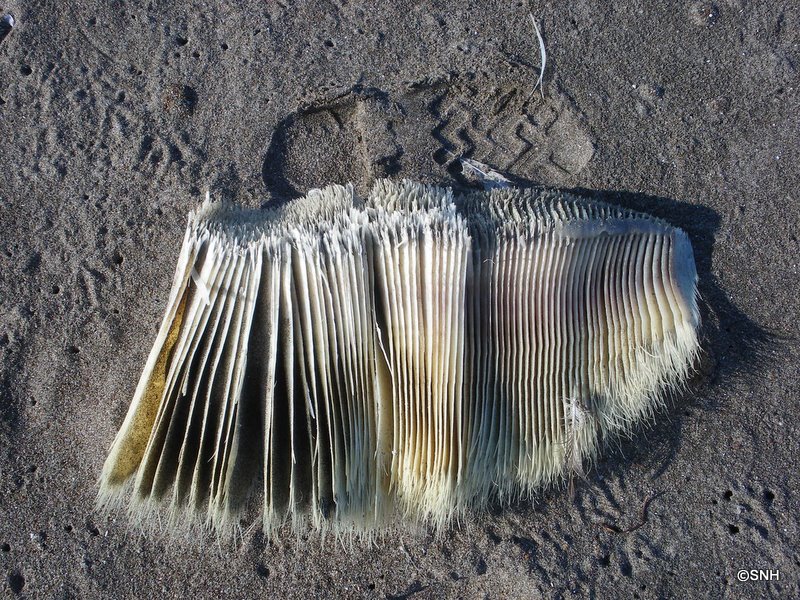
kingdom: Animalia
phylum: Chordata
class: Mammalia
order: Cetacea
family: Balaenopteridae
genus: Balaenoptera
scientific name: Balaenoptera acutorostrata
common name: Minke whale
